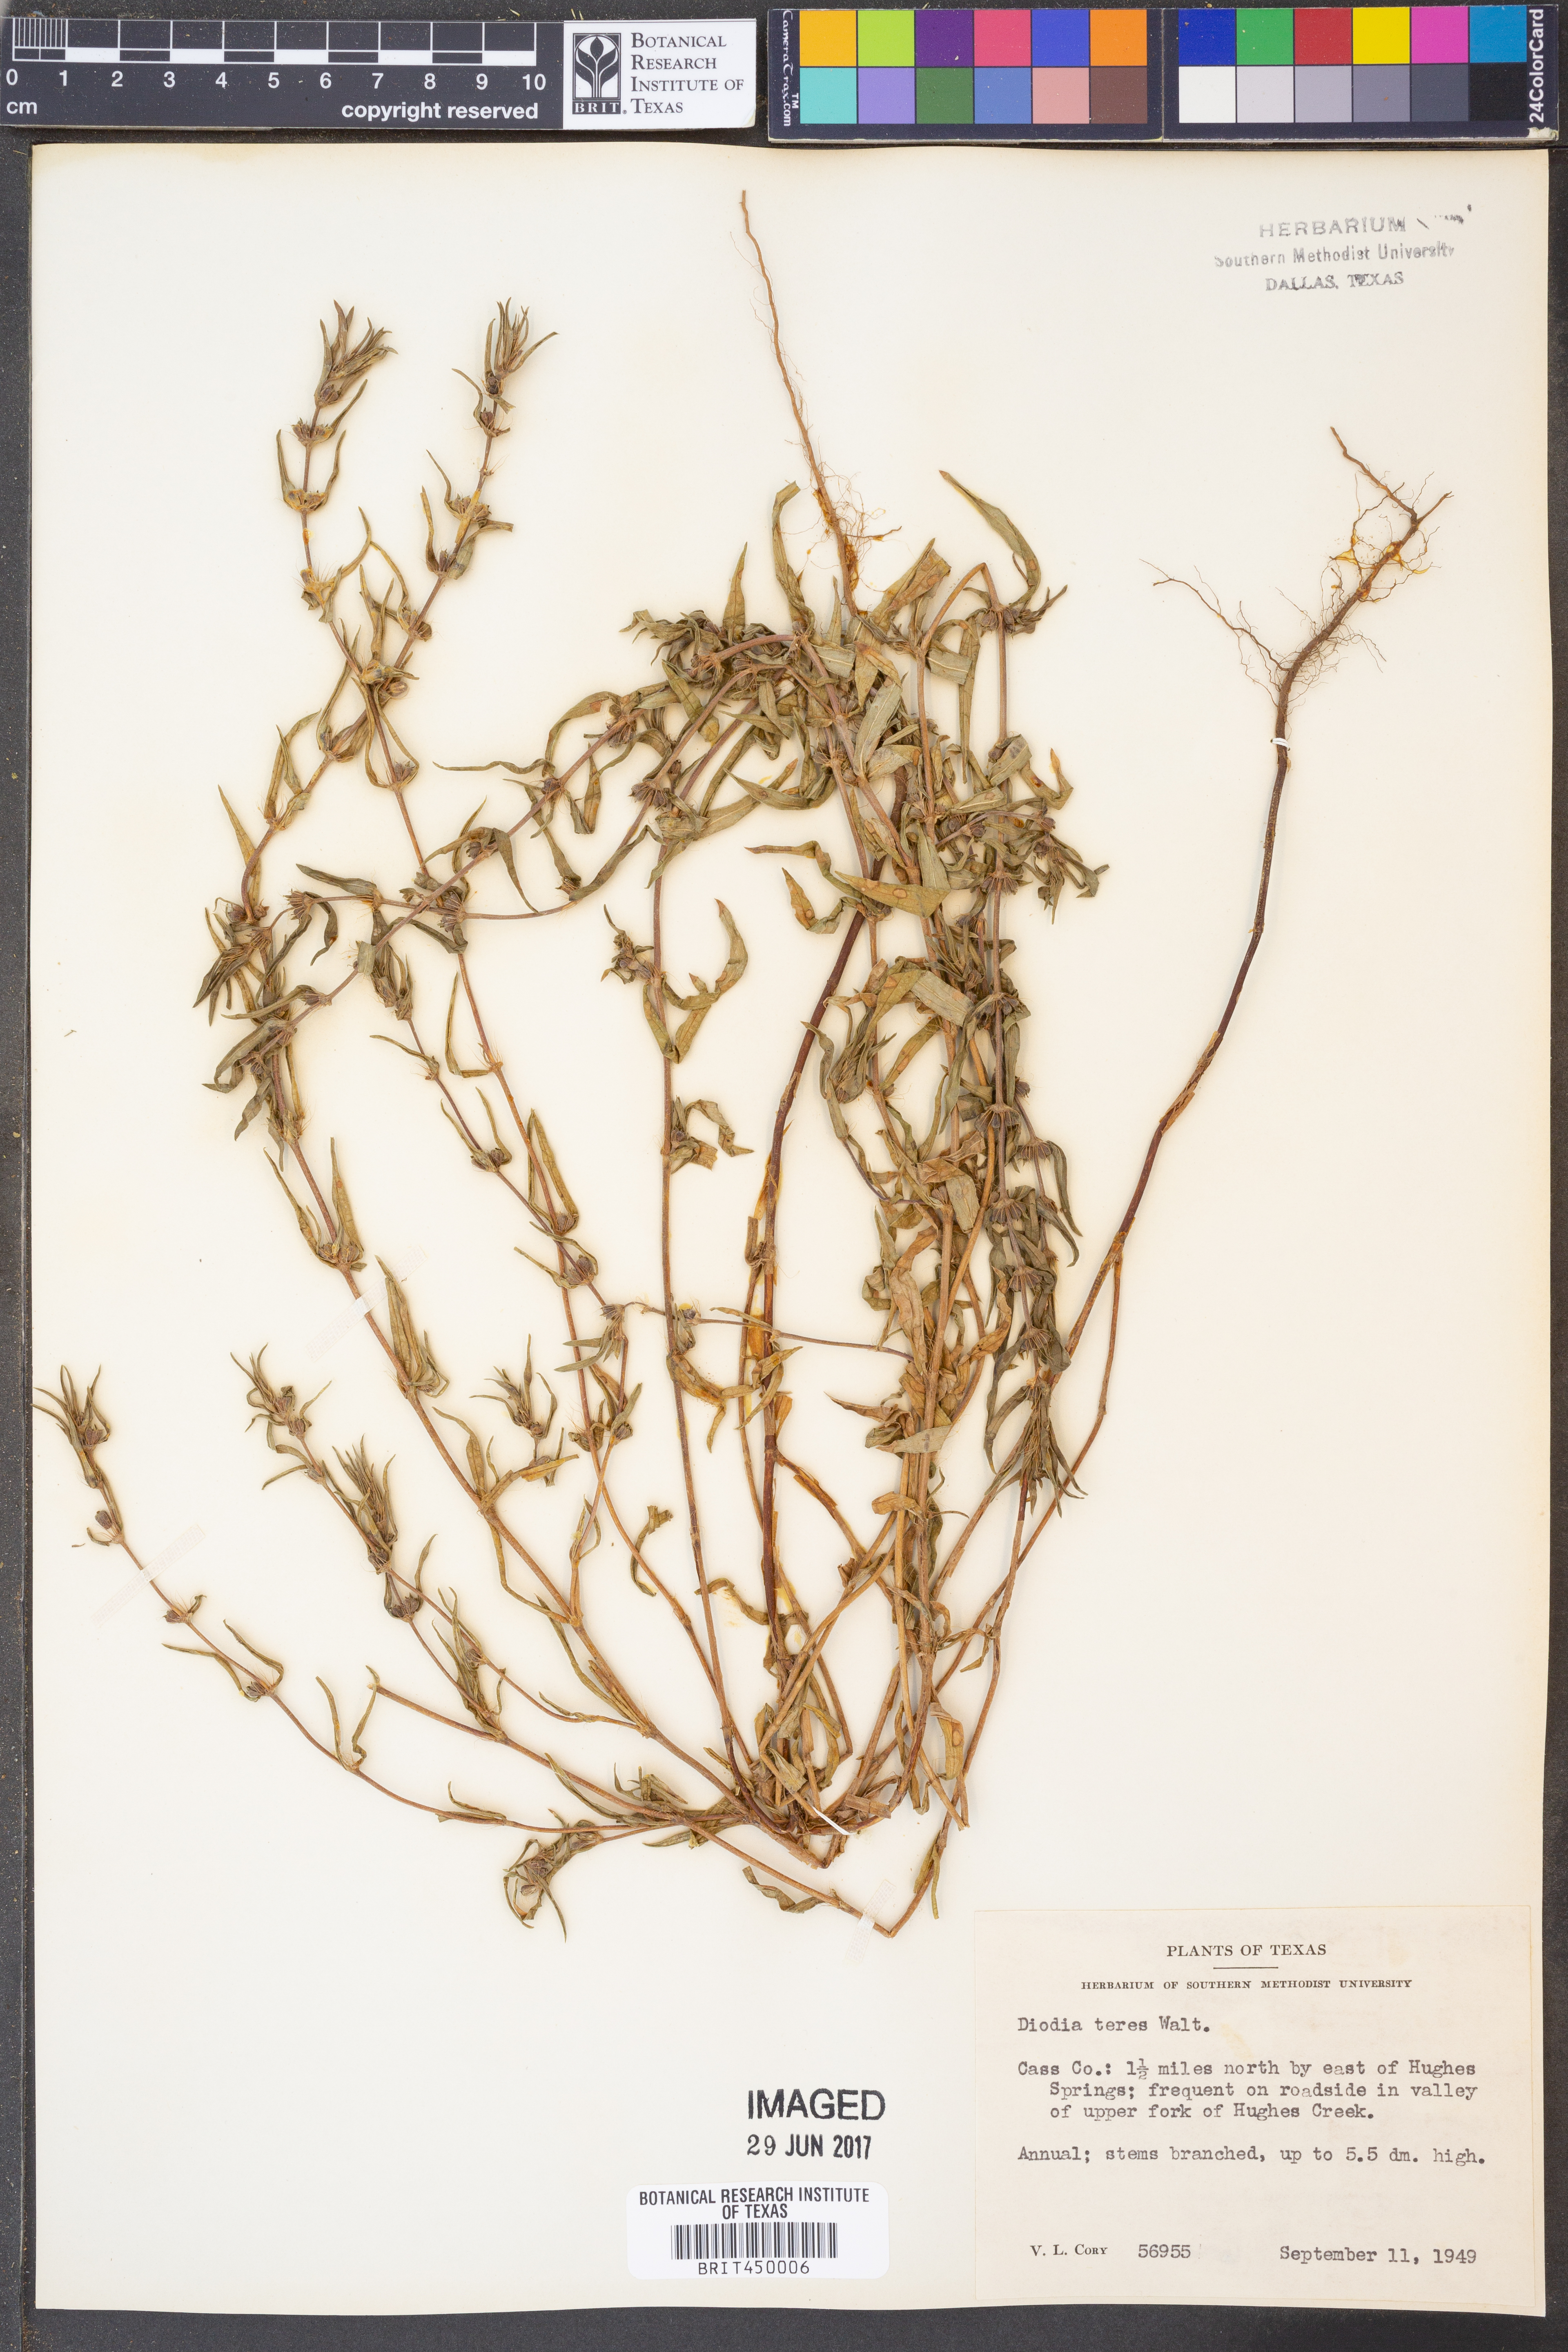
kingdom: Plantae
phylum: Tracheophyta
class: Magnoliopsida
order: Gentianales
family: Rubiaceae
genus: Hexasepalum
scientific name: Hexasepalum teres
